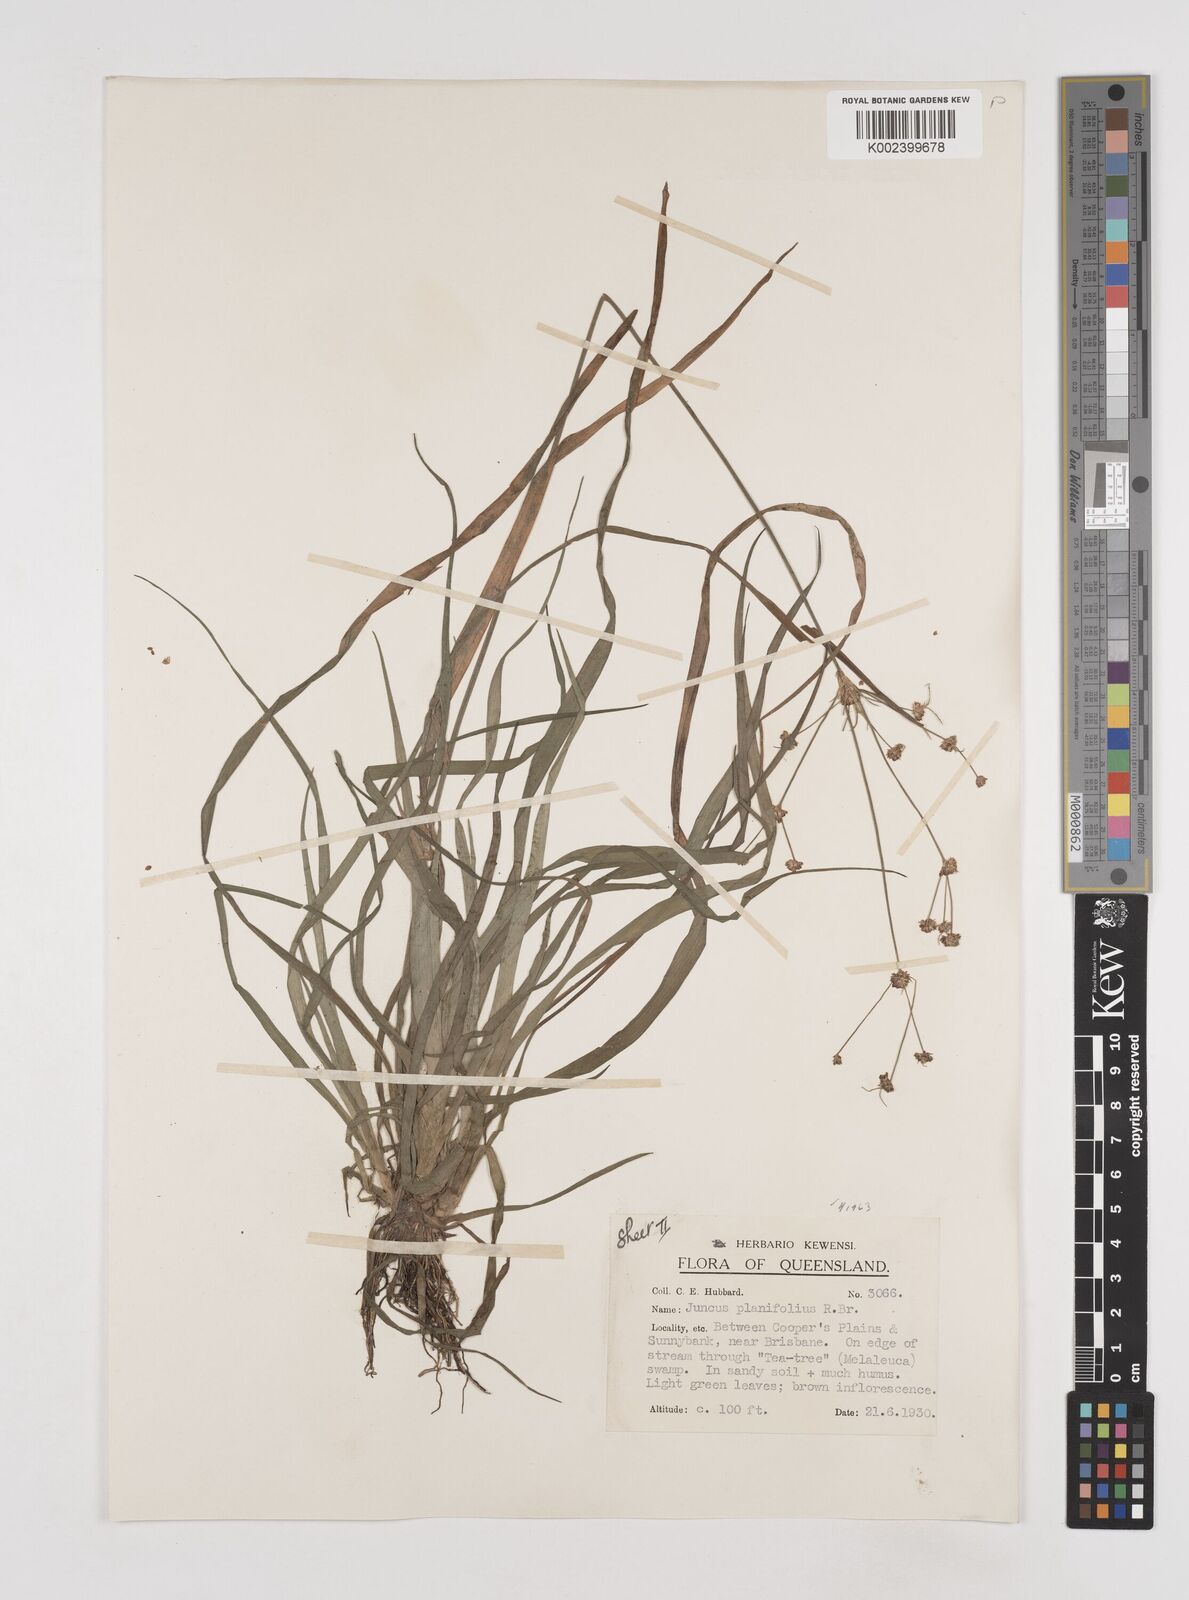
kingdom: Plantae
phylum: Tracheophyta
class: Liliopsida
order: Poales
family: Juncaceae
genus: Juncus
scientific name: Juncus planifolius
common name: Broadleaf rush
